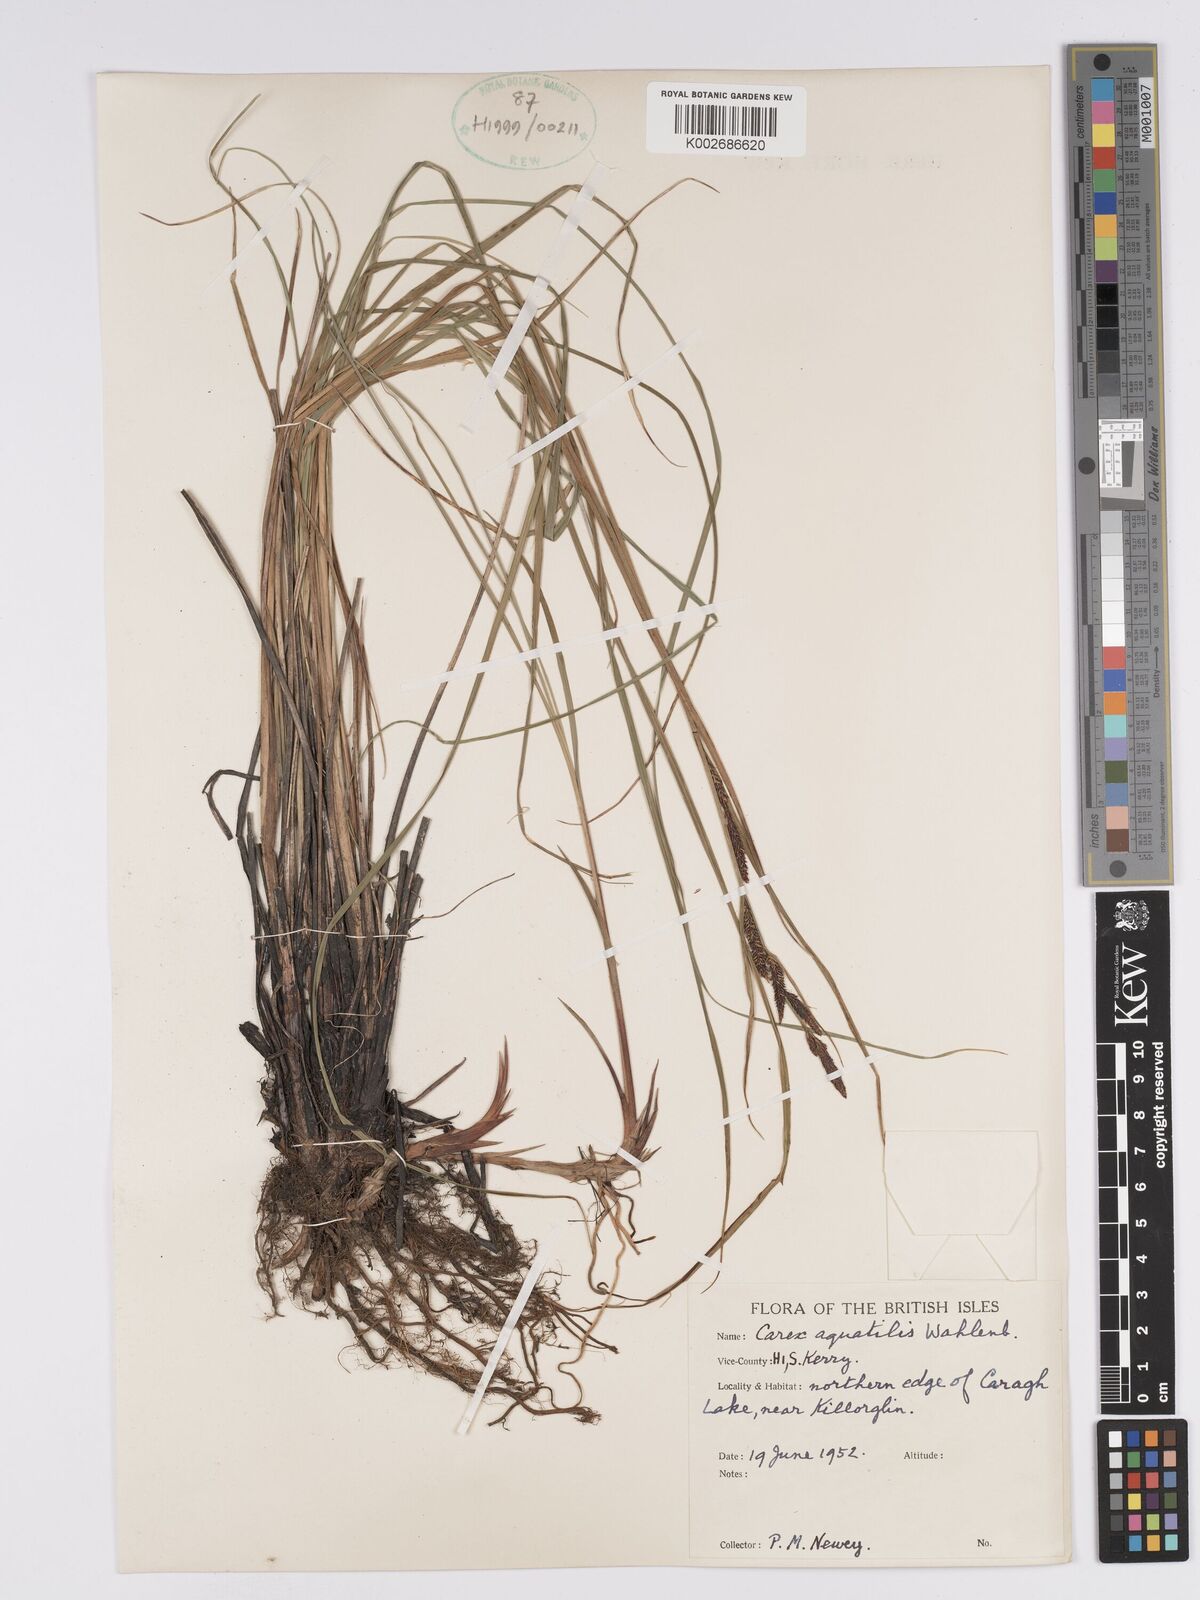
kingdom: Plantae
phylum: Tracheophyta
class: Liliopsida
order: Poales
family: Cyperaceae
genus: Carex
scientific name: Carex aquatilis
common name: Water sedge
